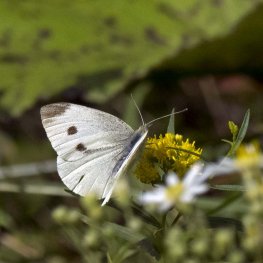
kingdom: Animalia
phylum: Arthropoda
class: Insecta
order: Lepidoptera
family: Pieridae
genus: Pieris
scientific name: Pieris rapae
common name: Cabbage White
